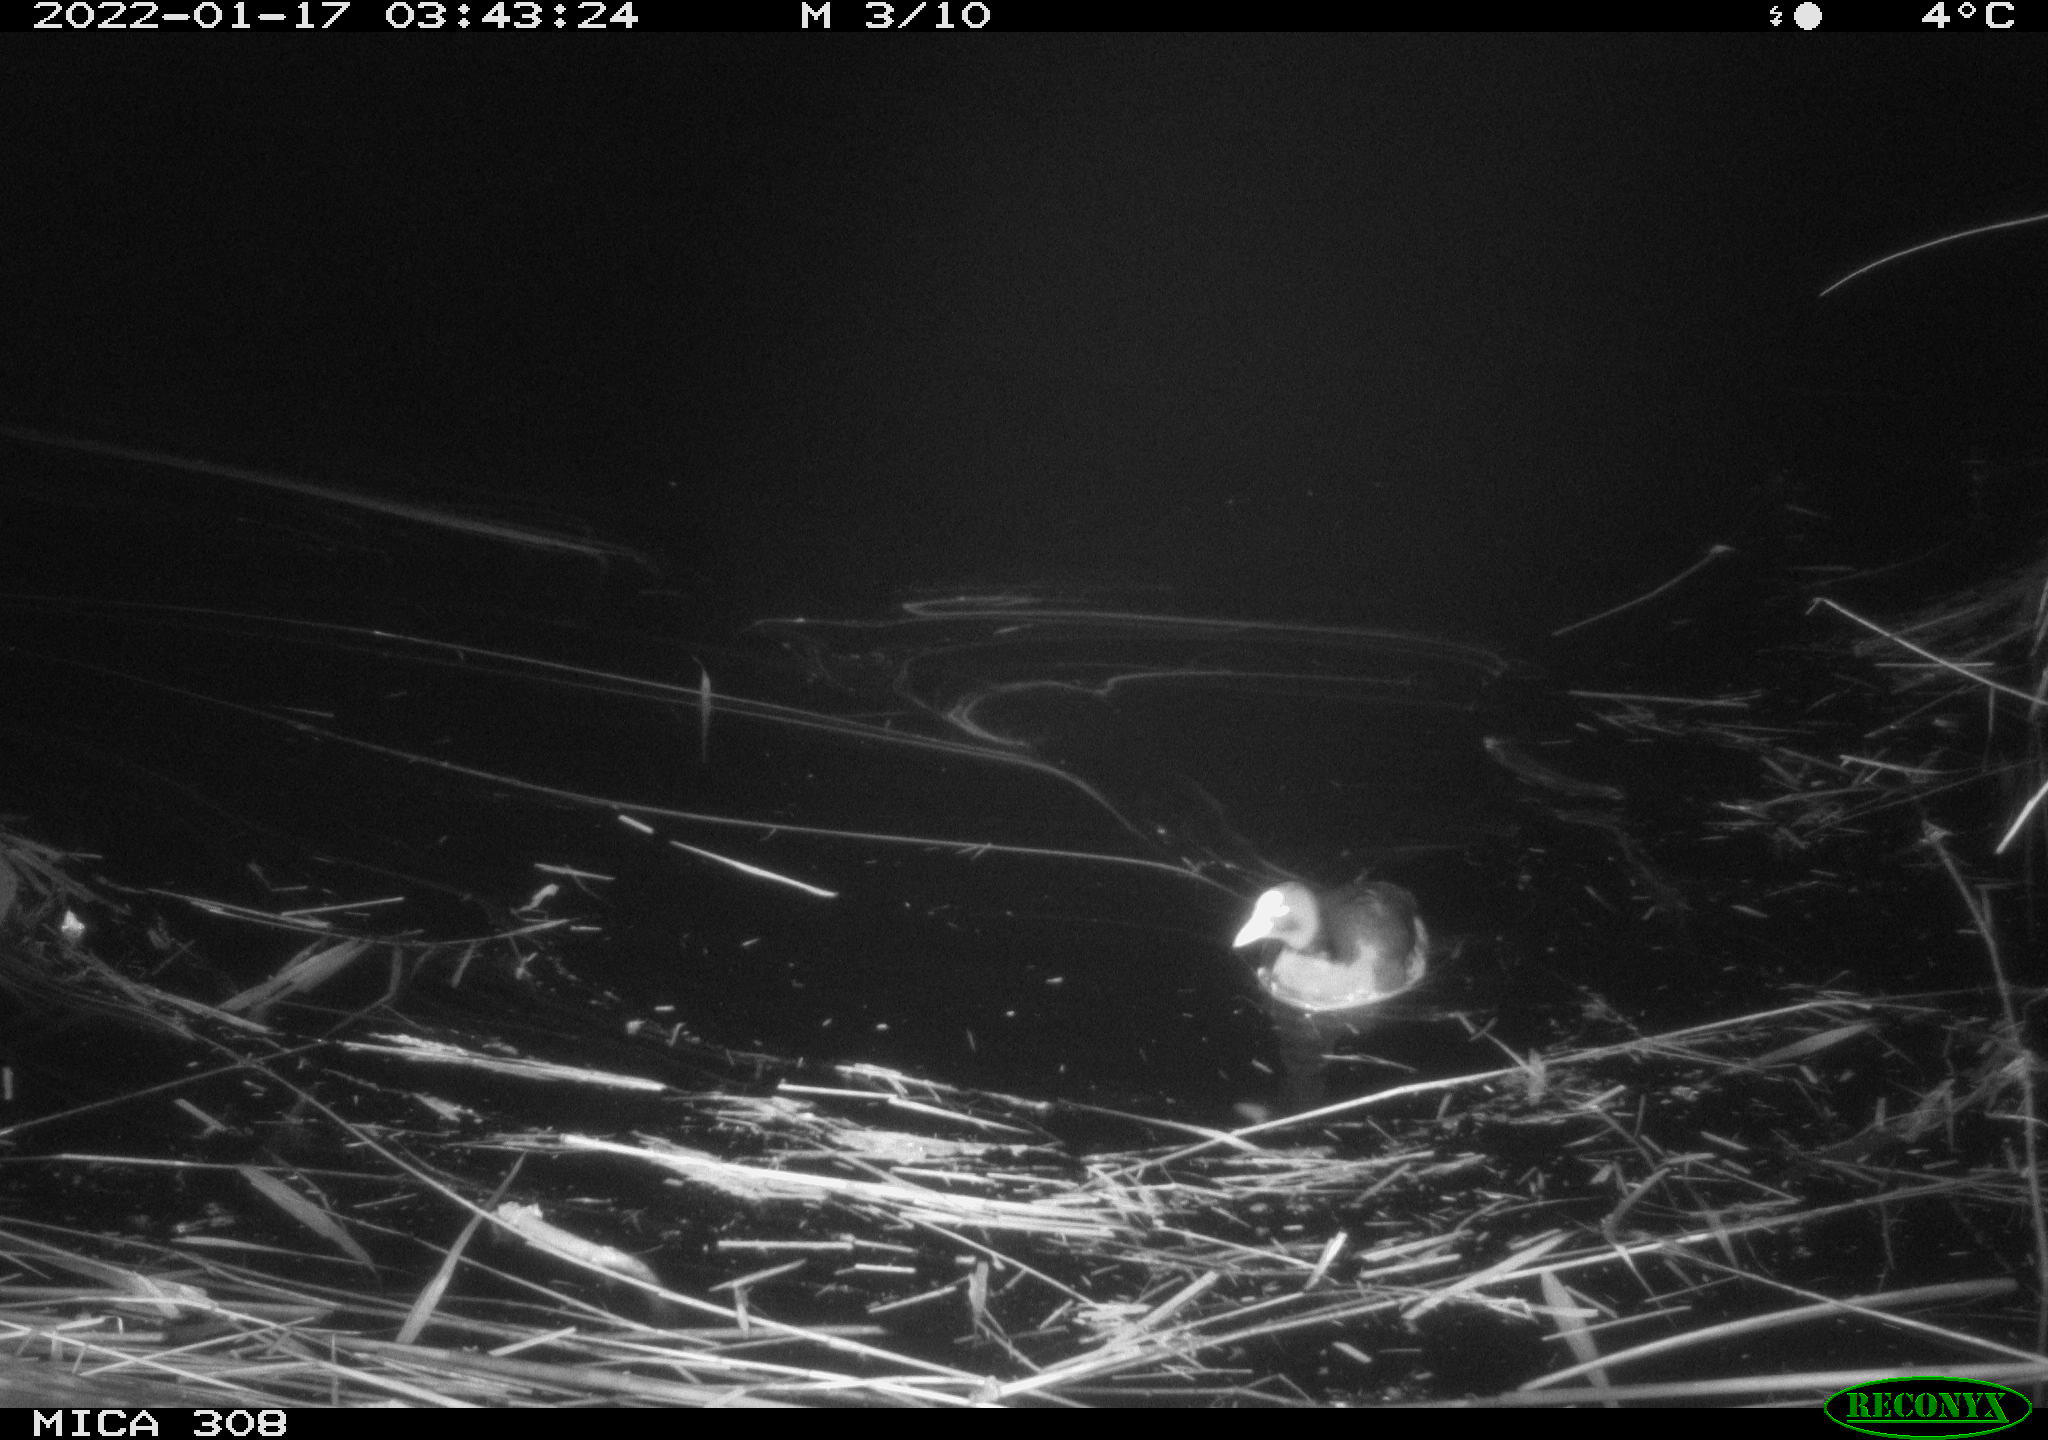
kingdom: Animalia
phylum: Chordata
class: Aves
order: Gruiformes
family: Rallidae
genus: Fulica
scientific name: Fulica atra
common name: Eurasian coot
